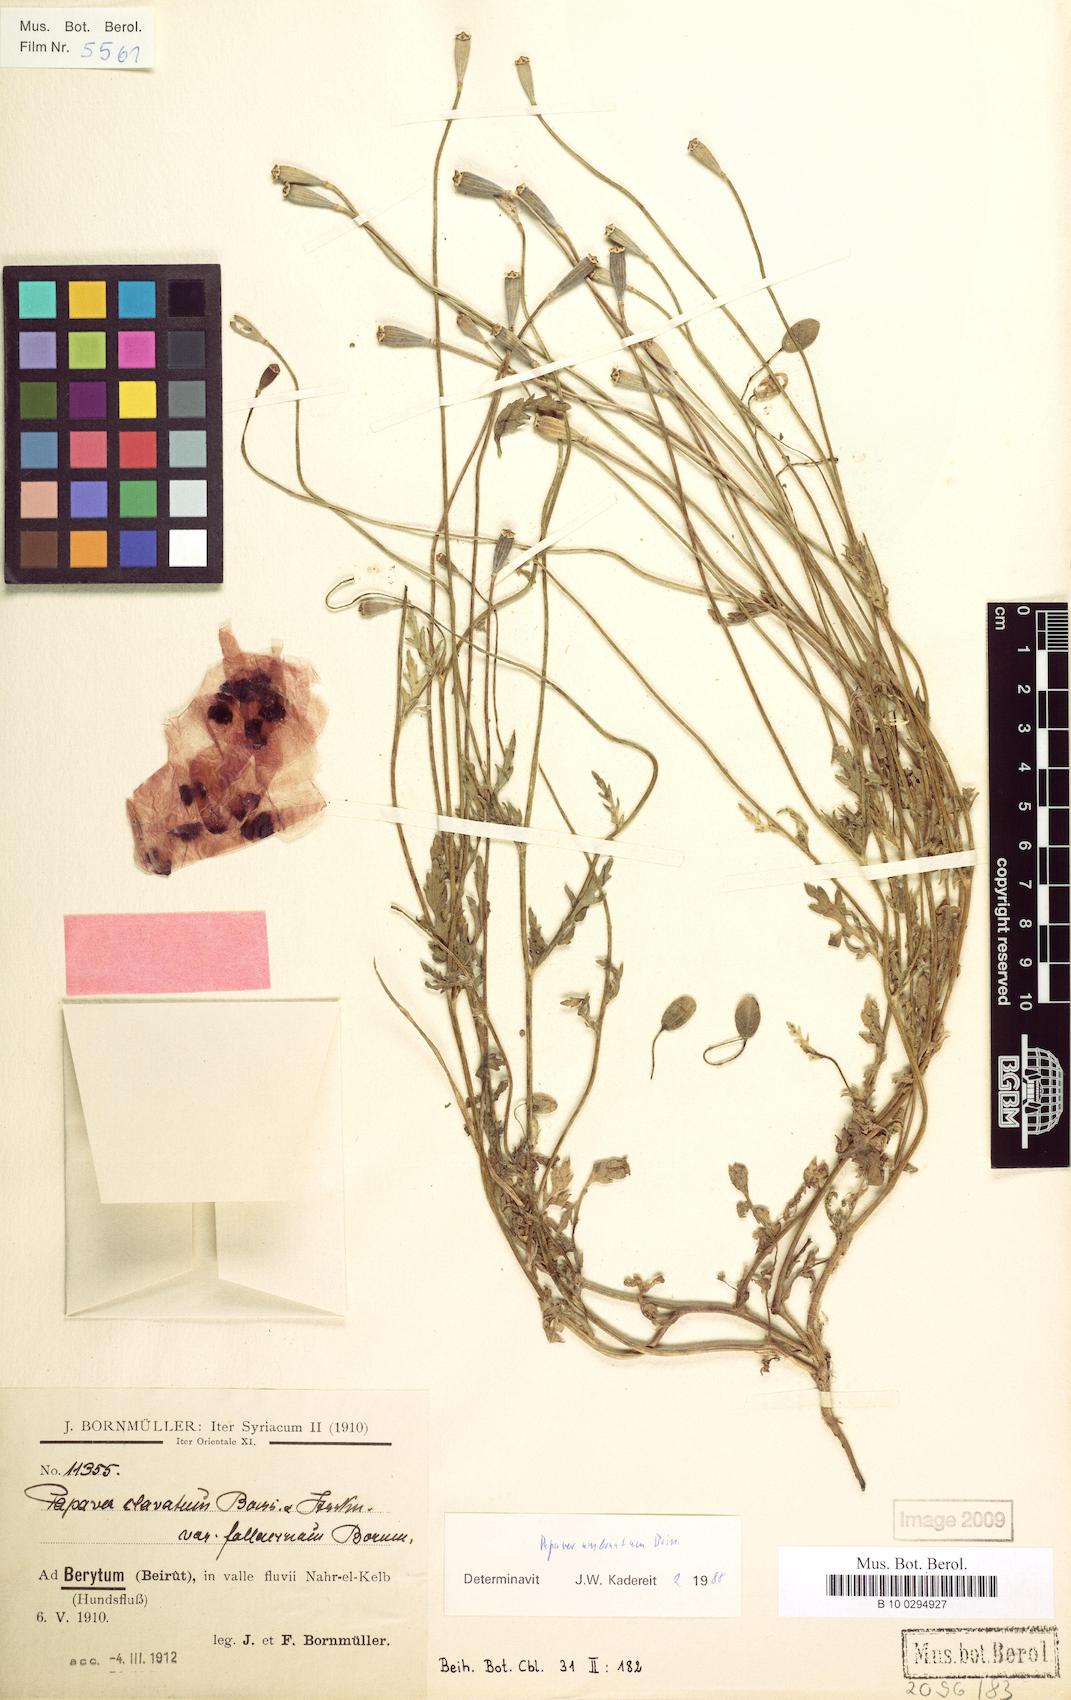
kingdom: Plantae
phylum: Tracheophyta
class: Magnoliopsida
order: Ranunculales
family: Papaveraceae
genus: Papaver
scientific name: Papaver umbonatum
